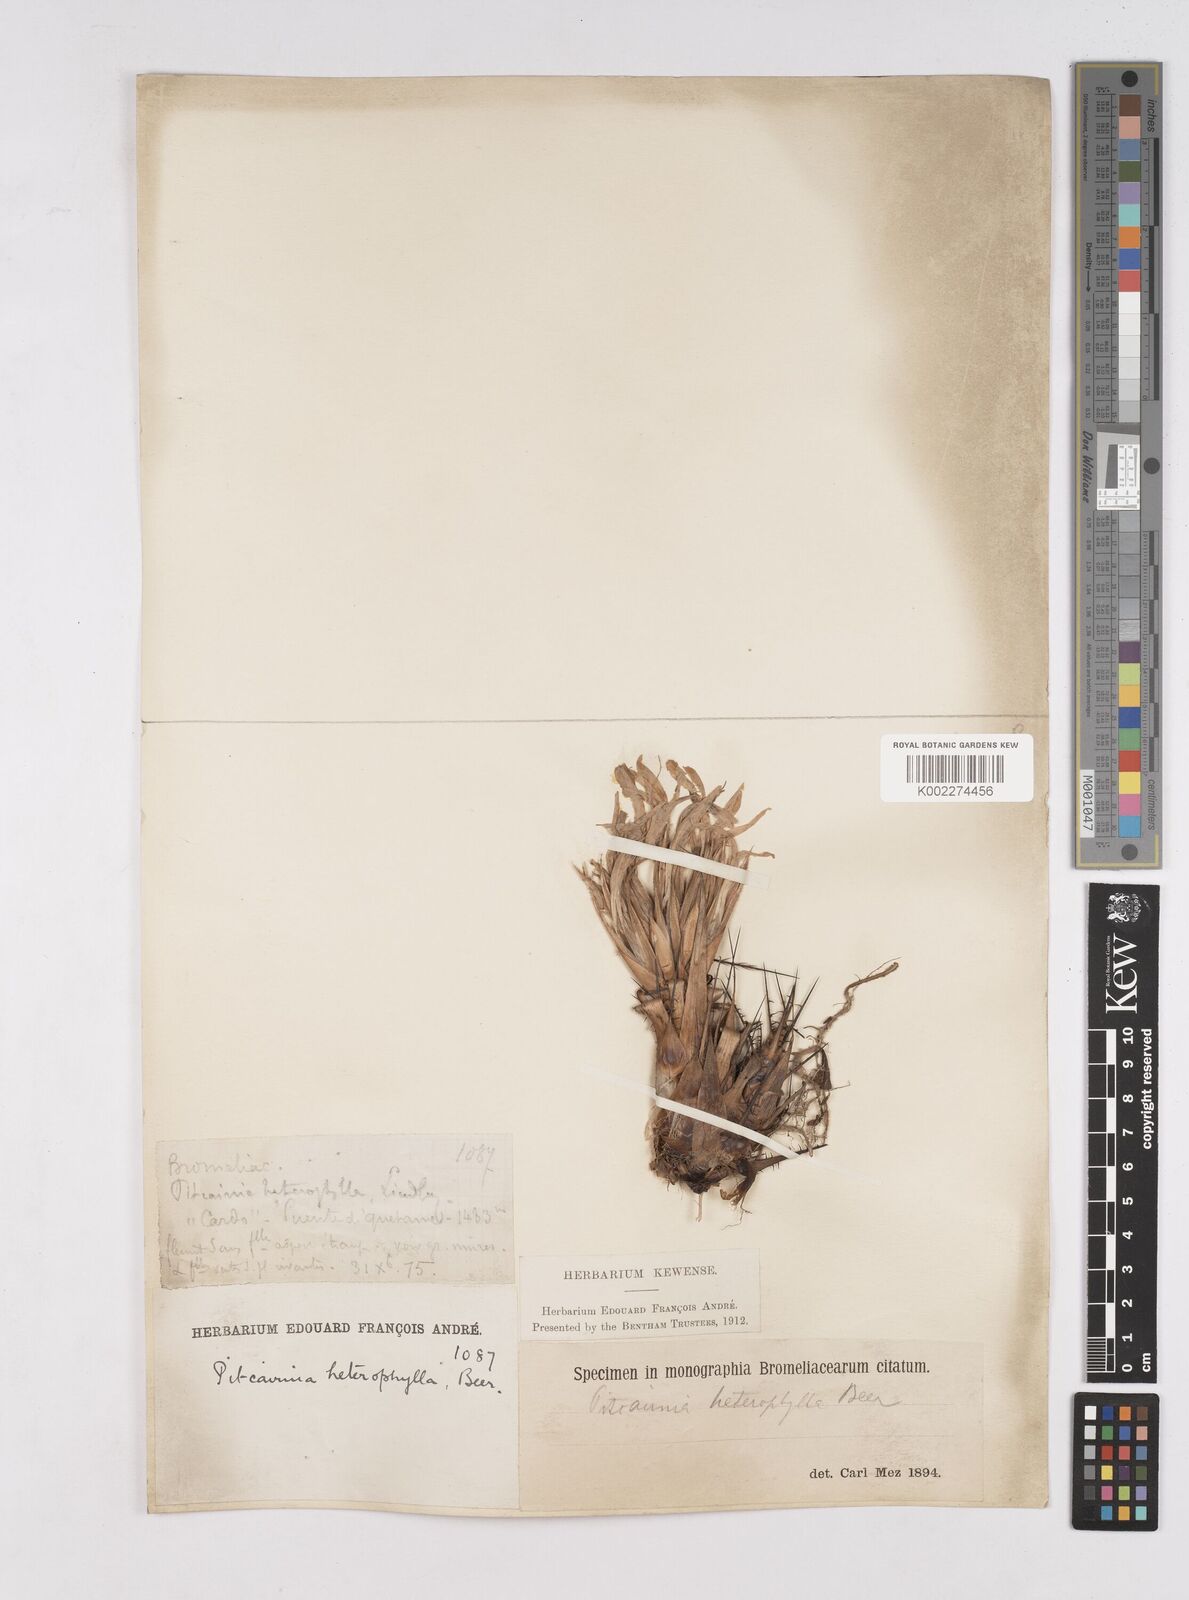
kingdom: Plantae
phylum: Tracheophyta
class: Liliopsida
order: Poales
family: Bromeliaceae
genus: Pitcairnia
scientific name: Pitcairnia heterophylla
